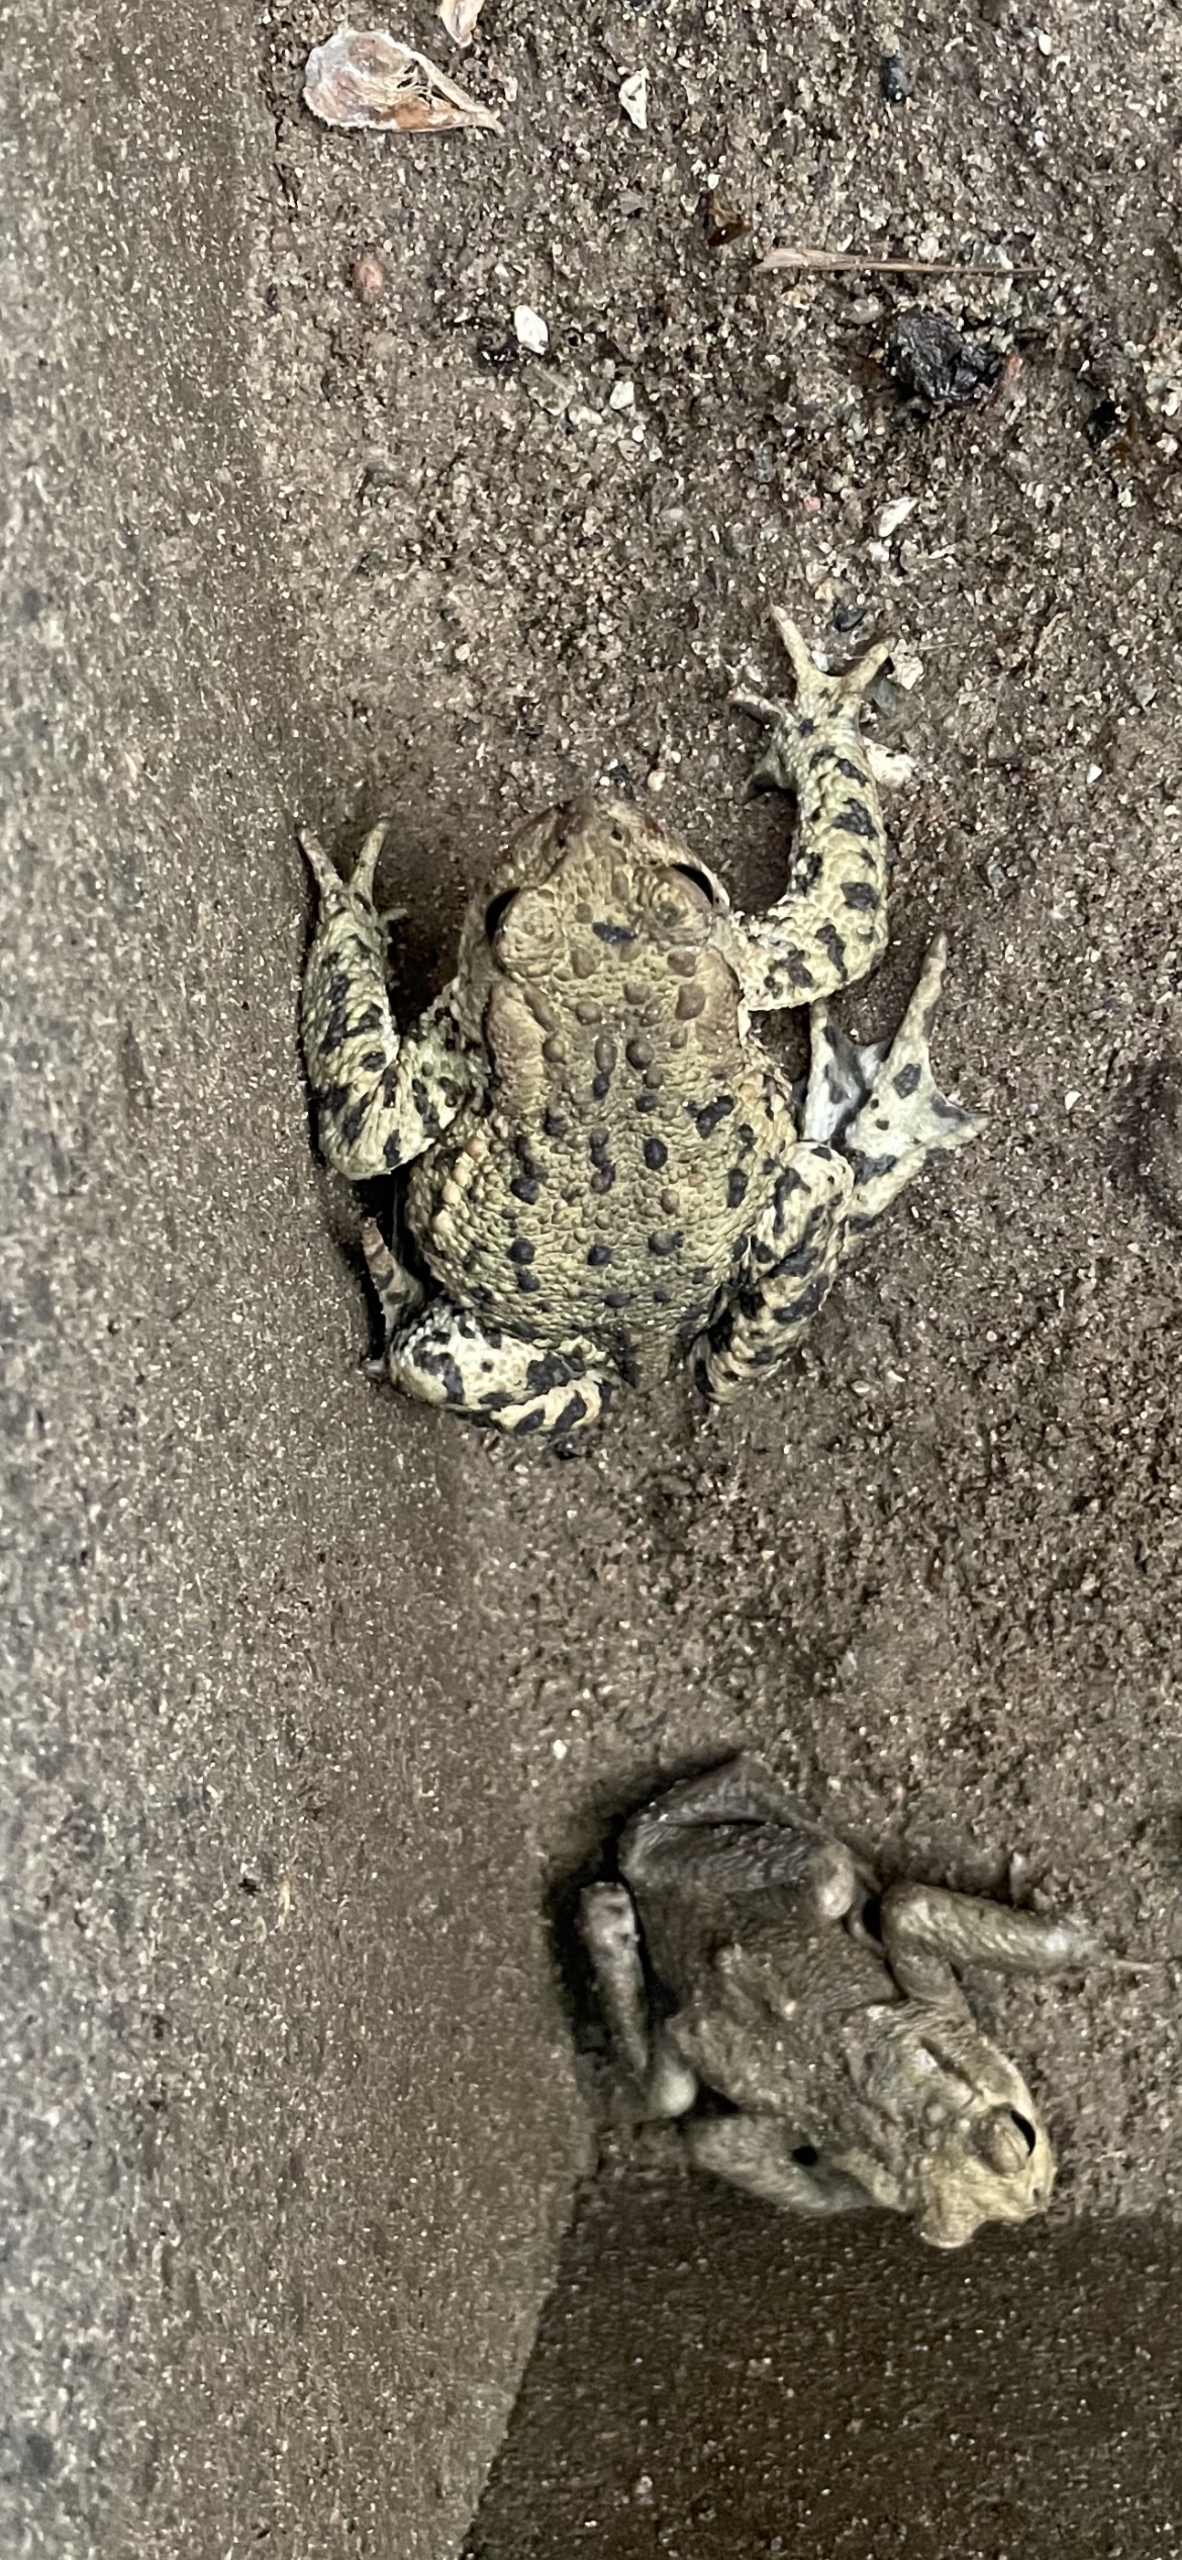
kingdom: Animalia
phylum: Chordata
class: Amphibia
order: Anura
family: Bufonidae
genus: Bufo
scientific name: Bufo bufo
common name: Skrubtudse
